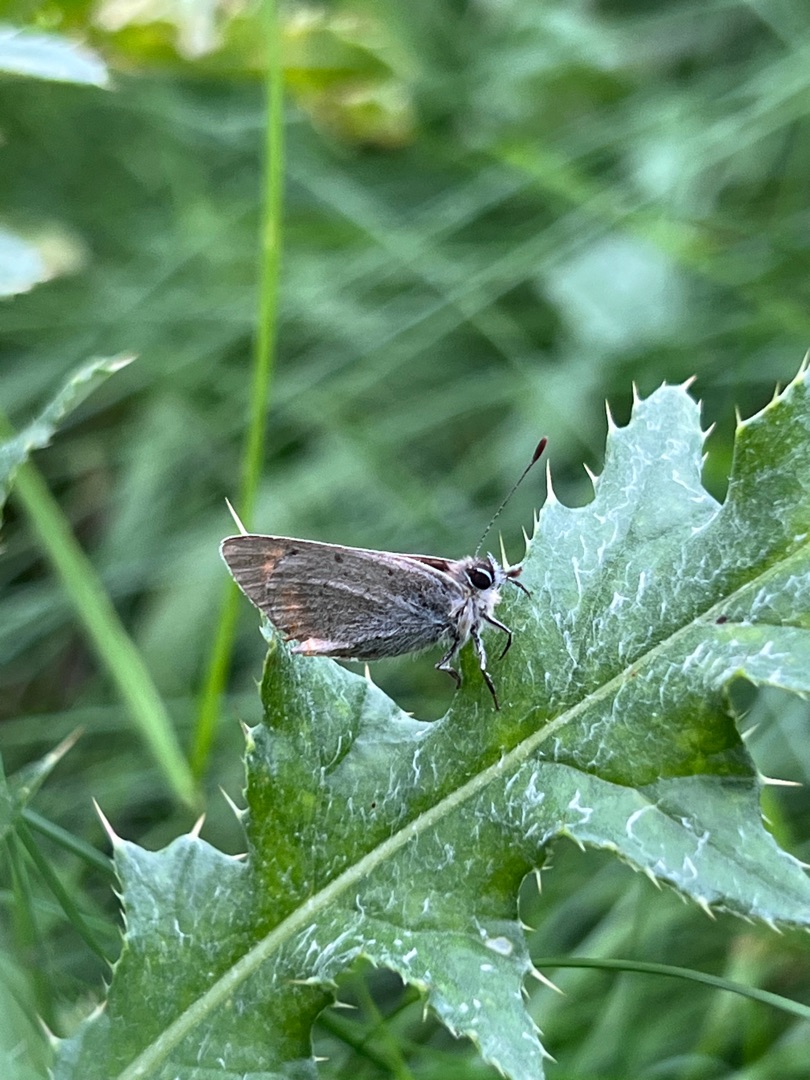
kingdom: Animalia
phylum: Arthropoda
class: Insecta
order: Lepidoptera
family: Lycaenidae
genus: Lycaena
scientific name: Lycaena phlaeas
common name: Lille ildfugl
